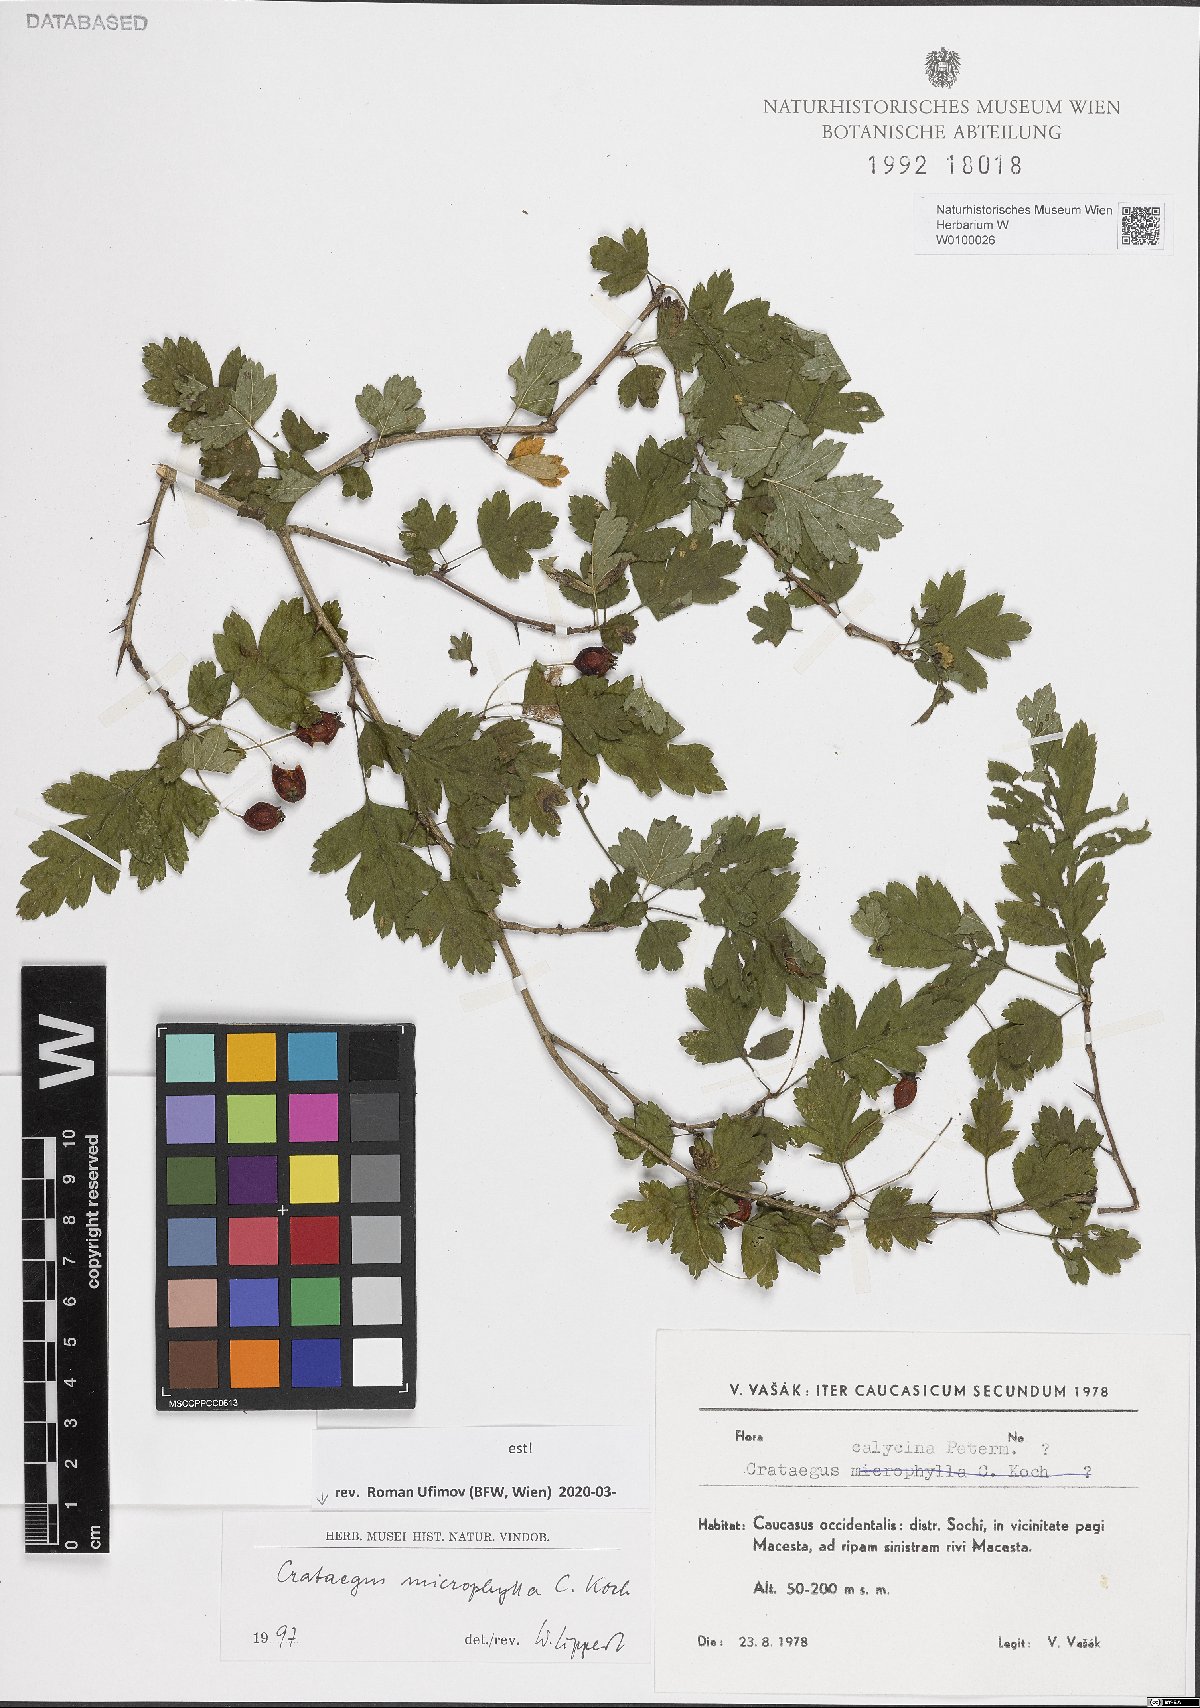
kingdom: Plantae
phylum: Tracheophyta
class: Magnoliopsida
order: Rosales
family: Rosaceae
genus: Crataegus
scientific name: Crataegus microphylla
